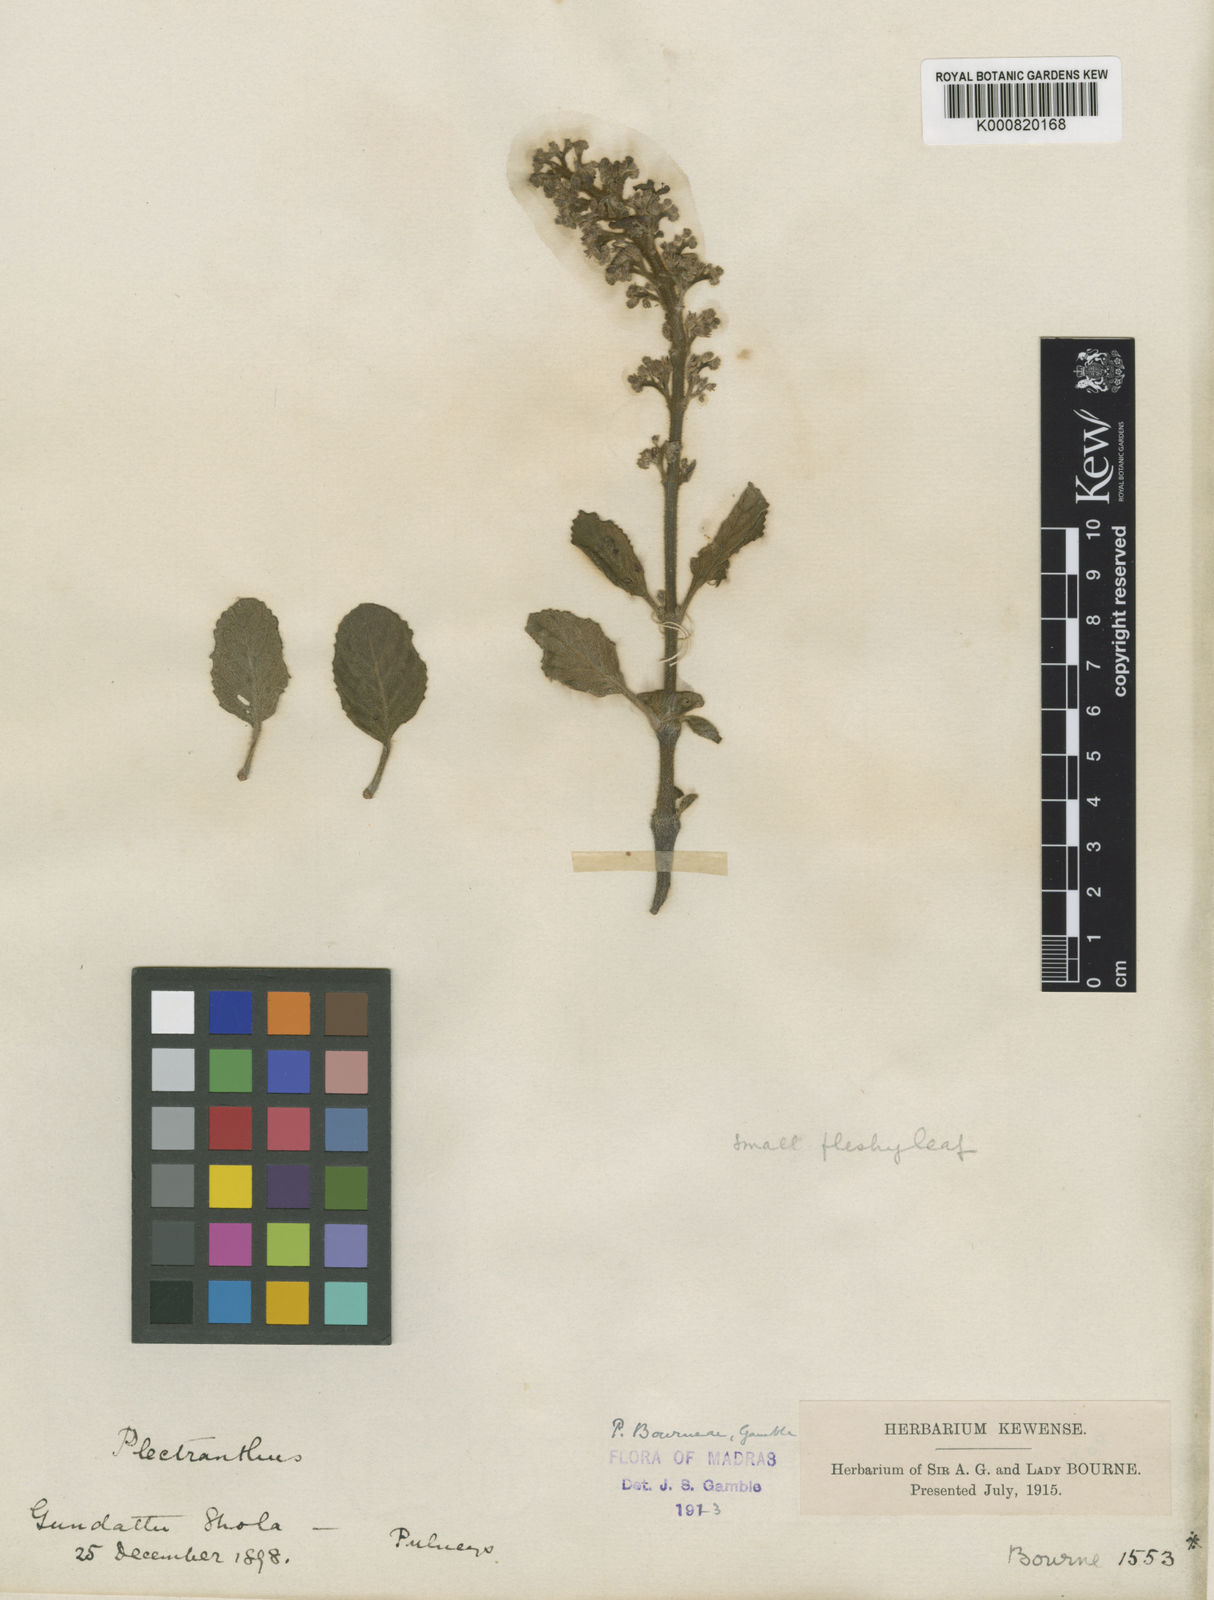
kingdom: Plantae
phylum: Tracheophyta
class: Magnoliopsida
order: Lamiales
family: Lamiaceae
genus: Coleus
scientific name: Coleus bourneae
